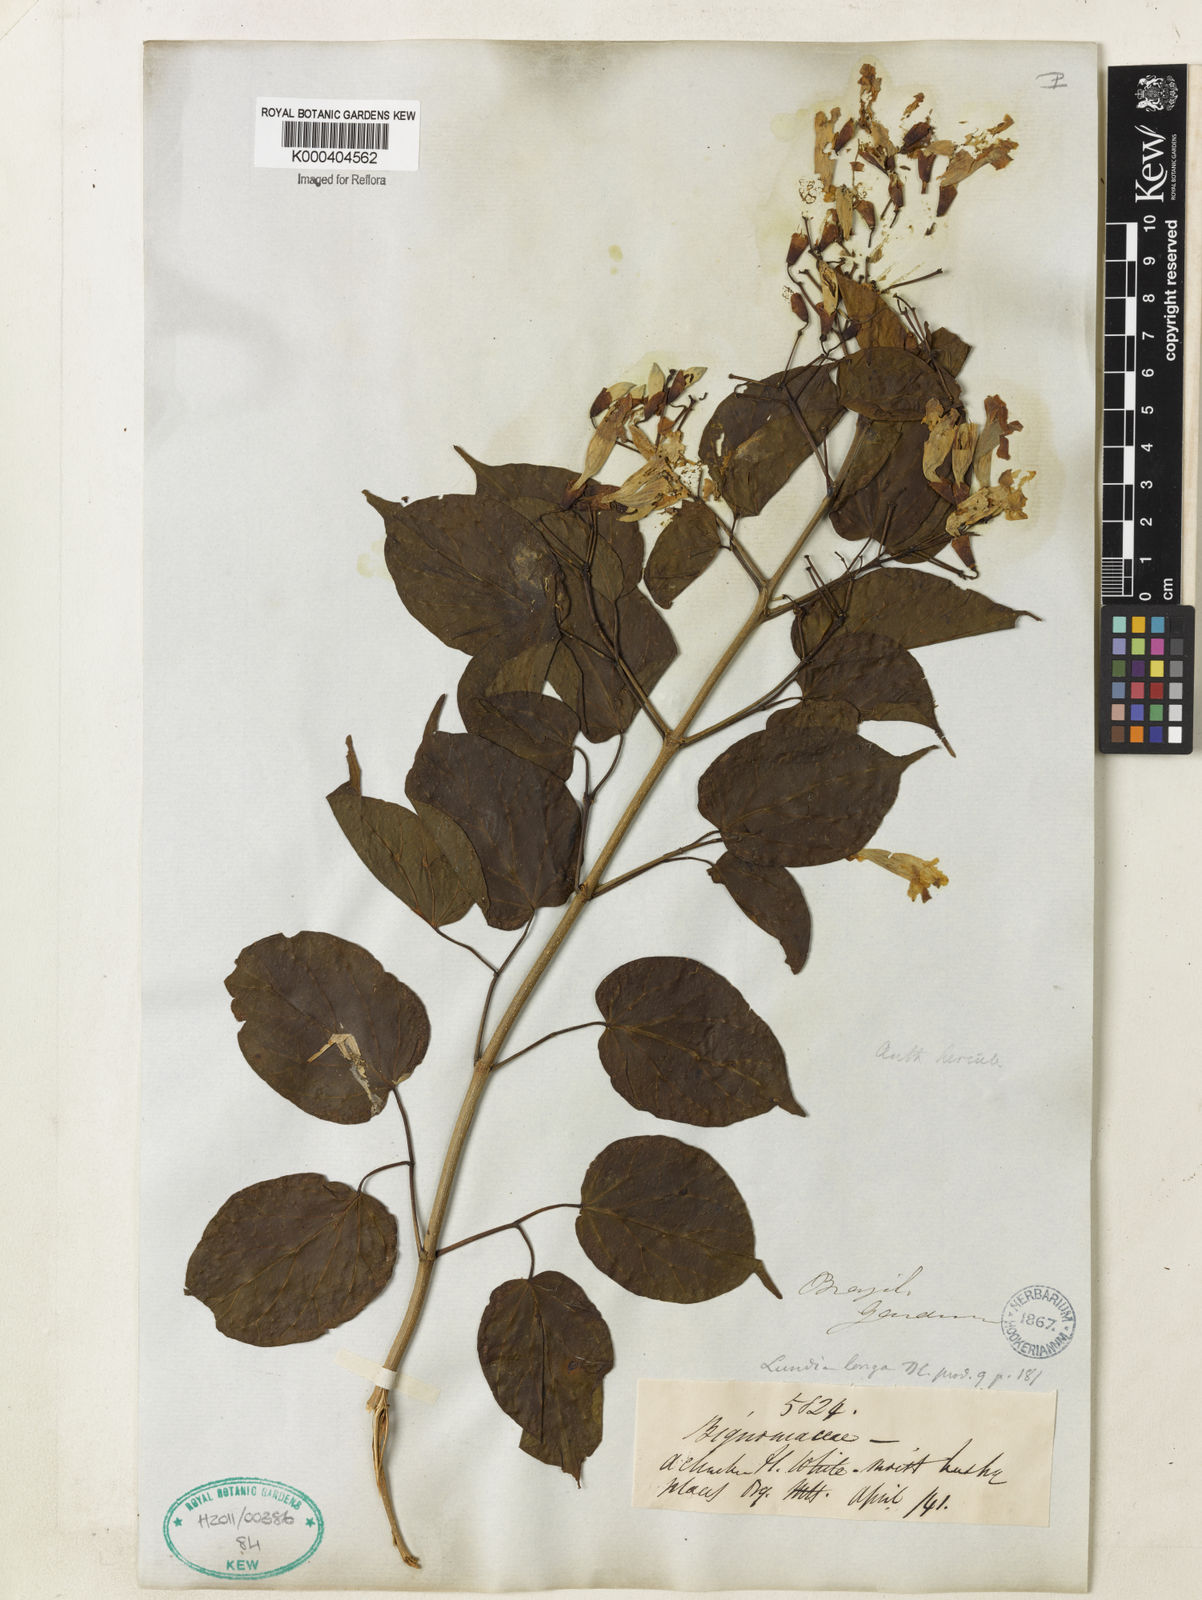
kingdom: Plantae
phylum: Tracheophyta
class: Magnoliopsida
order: Lamiales
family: Bignoniaceae
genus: Lundia
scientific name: Lundia longa
